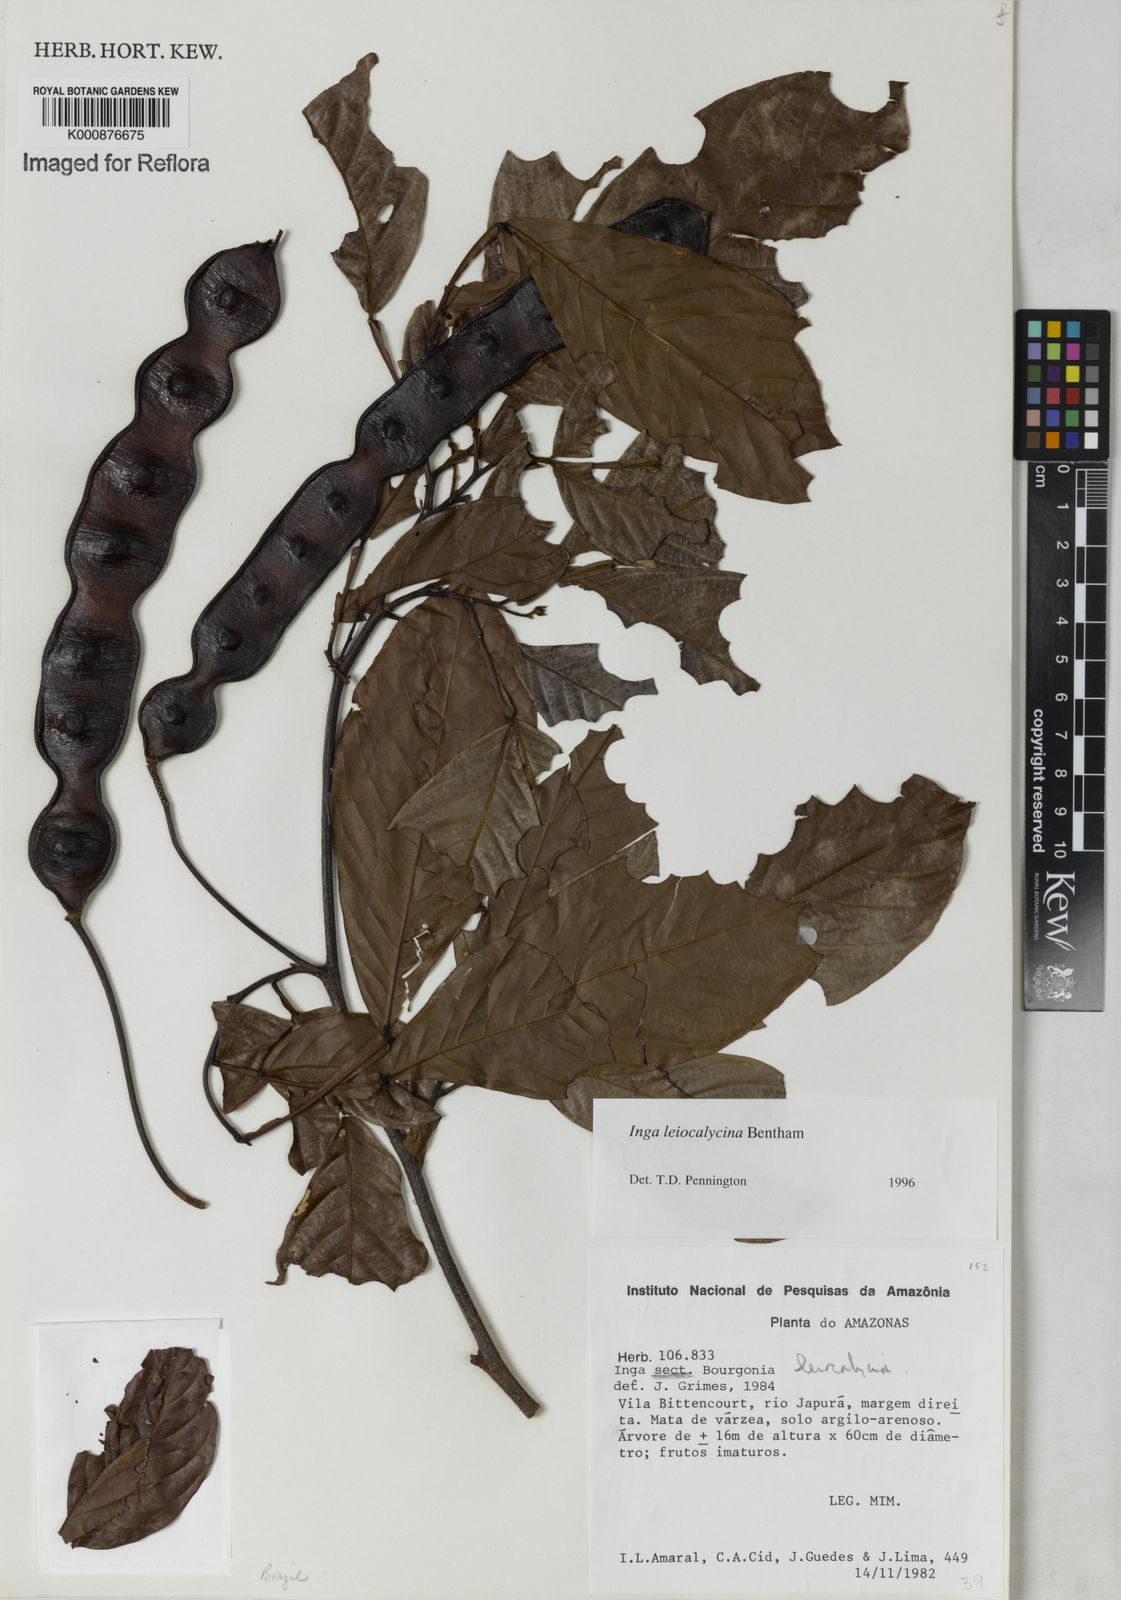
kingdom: Plantae
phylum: Tracheophyta
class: Magnoliopsida
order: Fabales
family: Fabaceae
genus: Inga
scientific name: Inga laevigata
